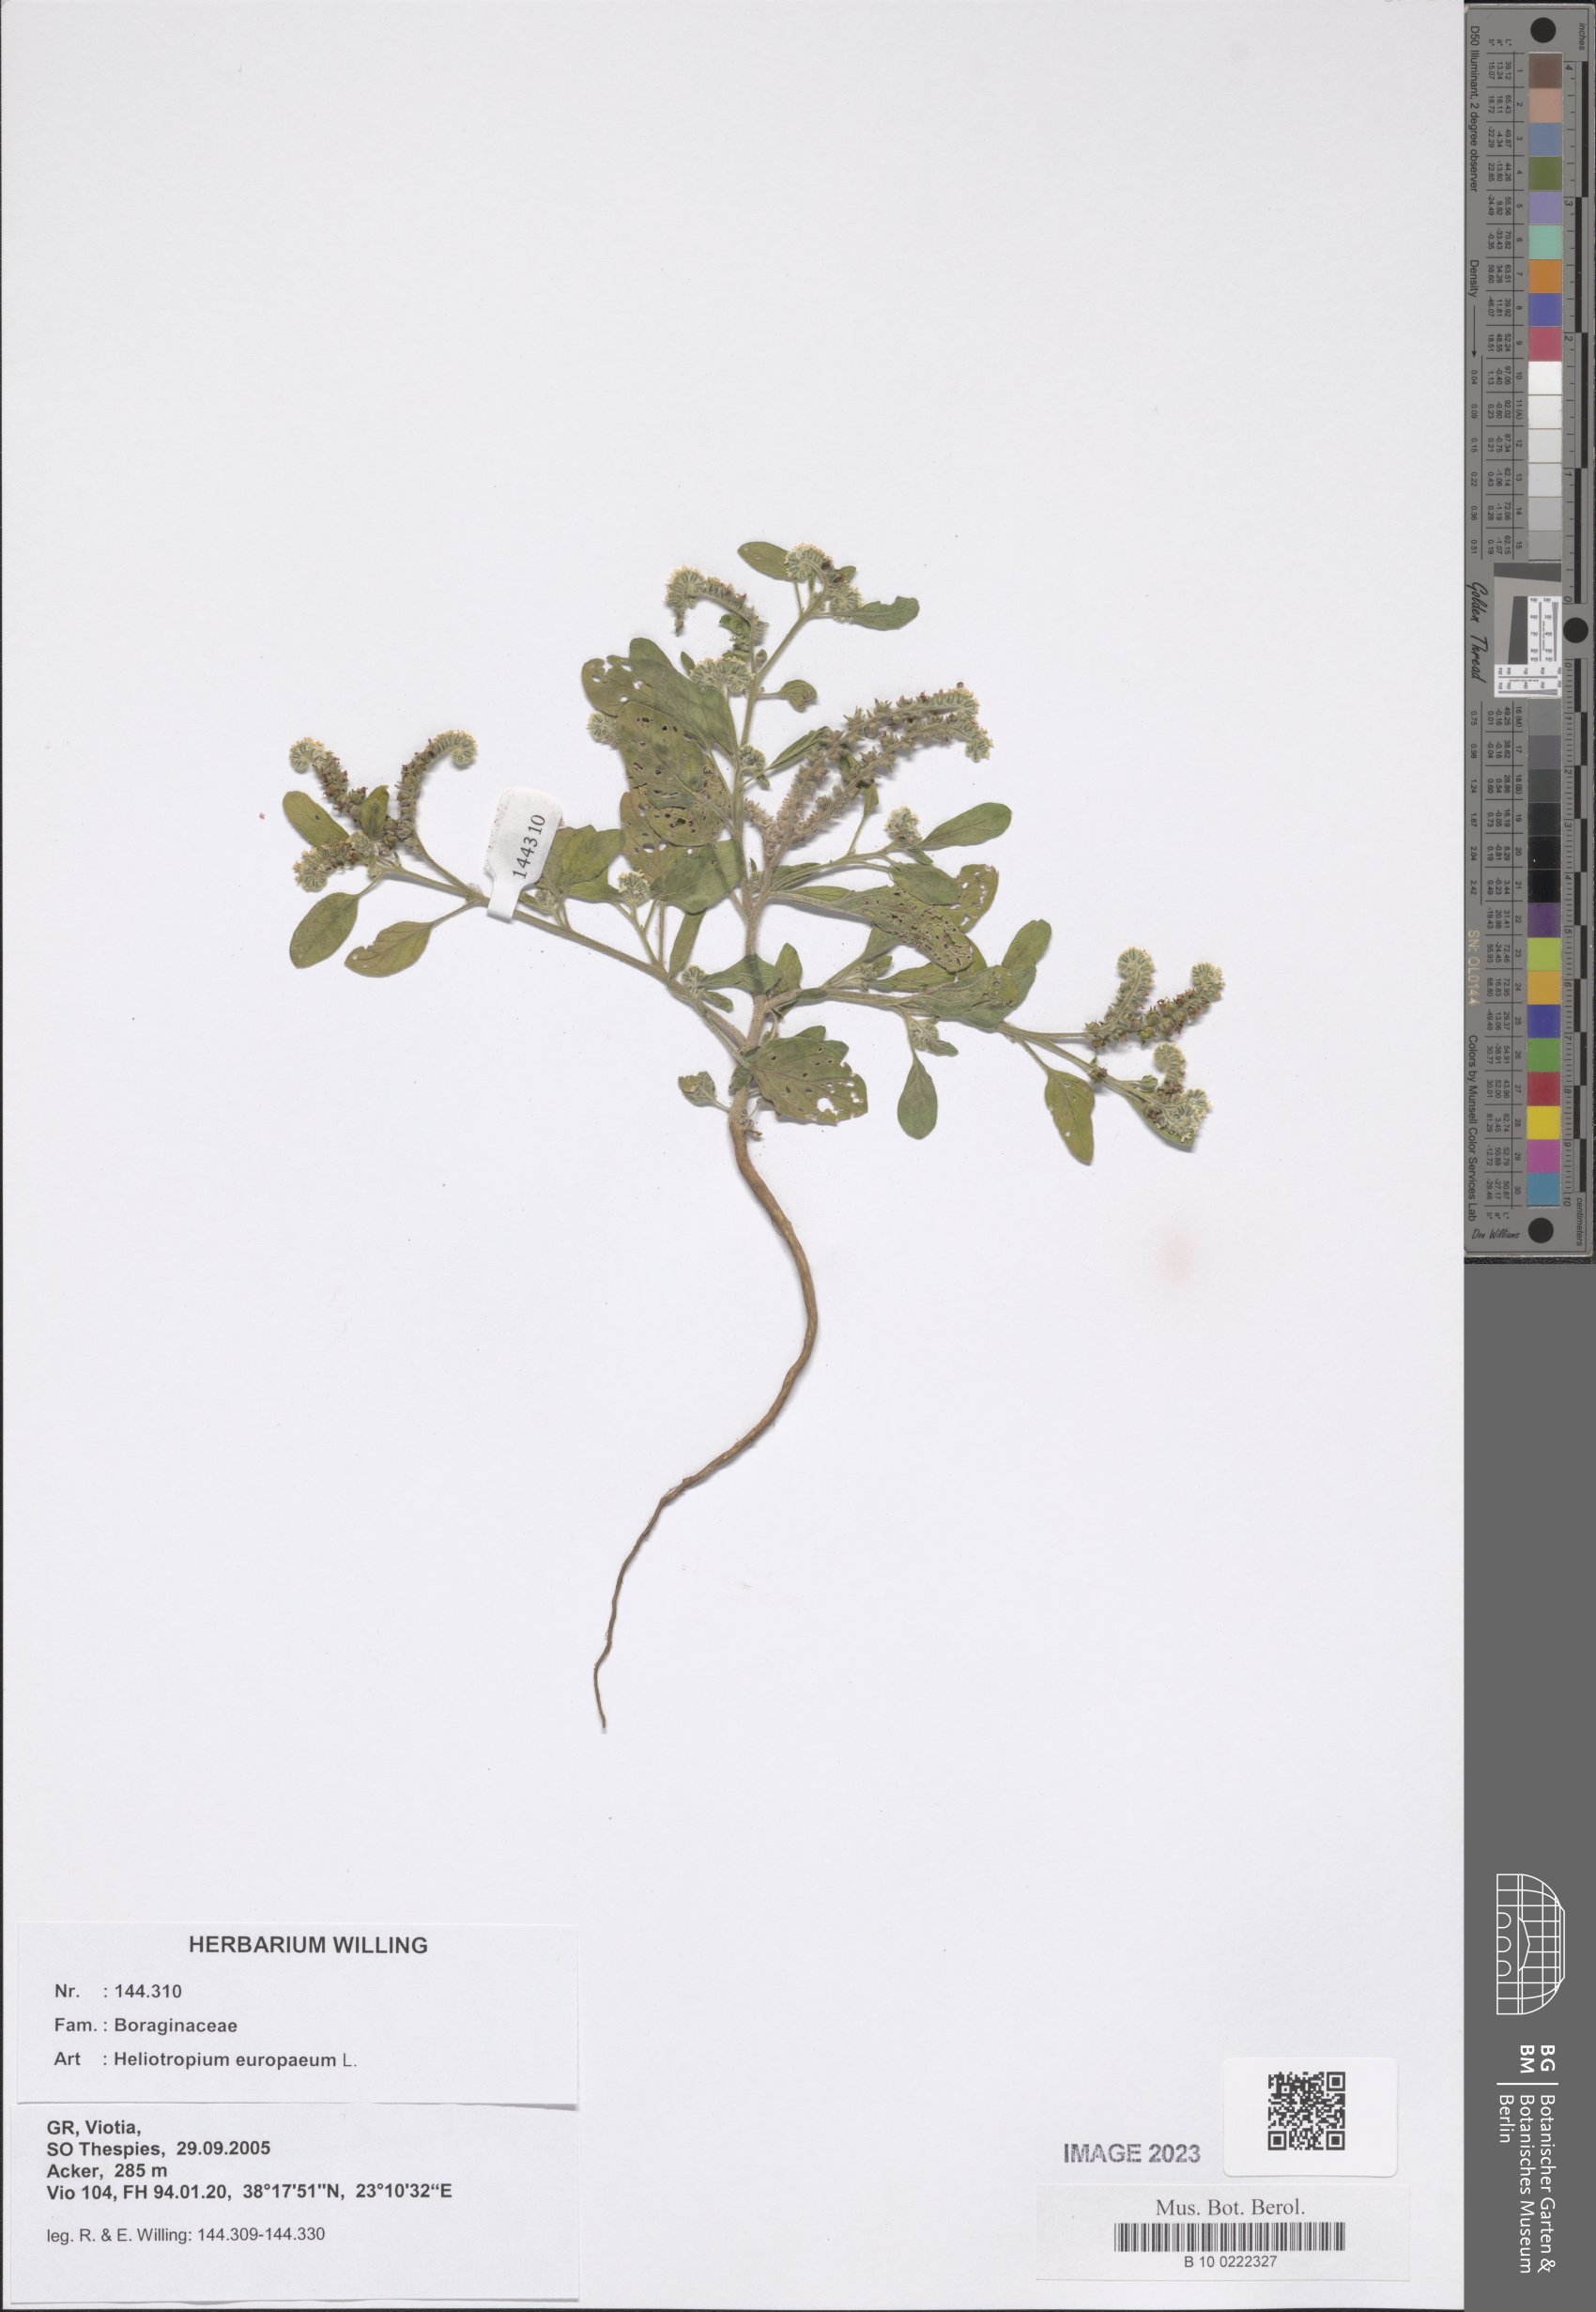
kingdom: Plantae
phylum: Tracheophyta
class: Magnoliopsida
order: Boraginales
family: Heliotropiaceae
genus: Heliotropium
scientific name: Heliotropium europaeum
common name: European heliotrope
